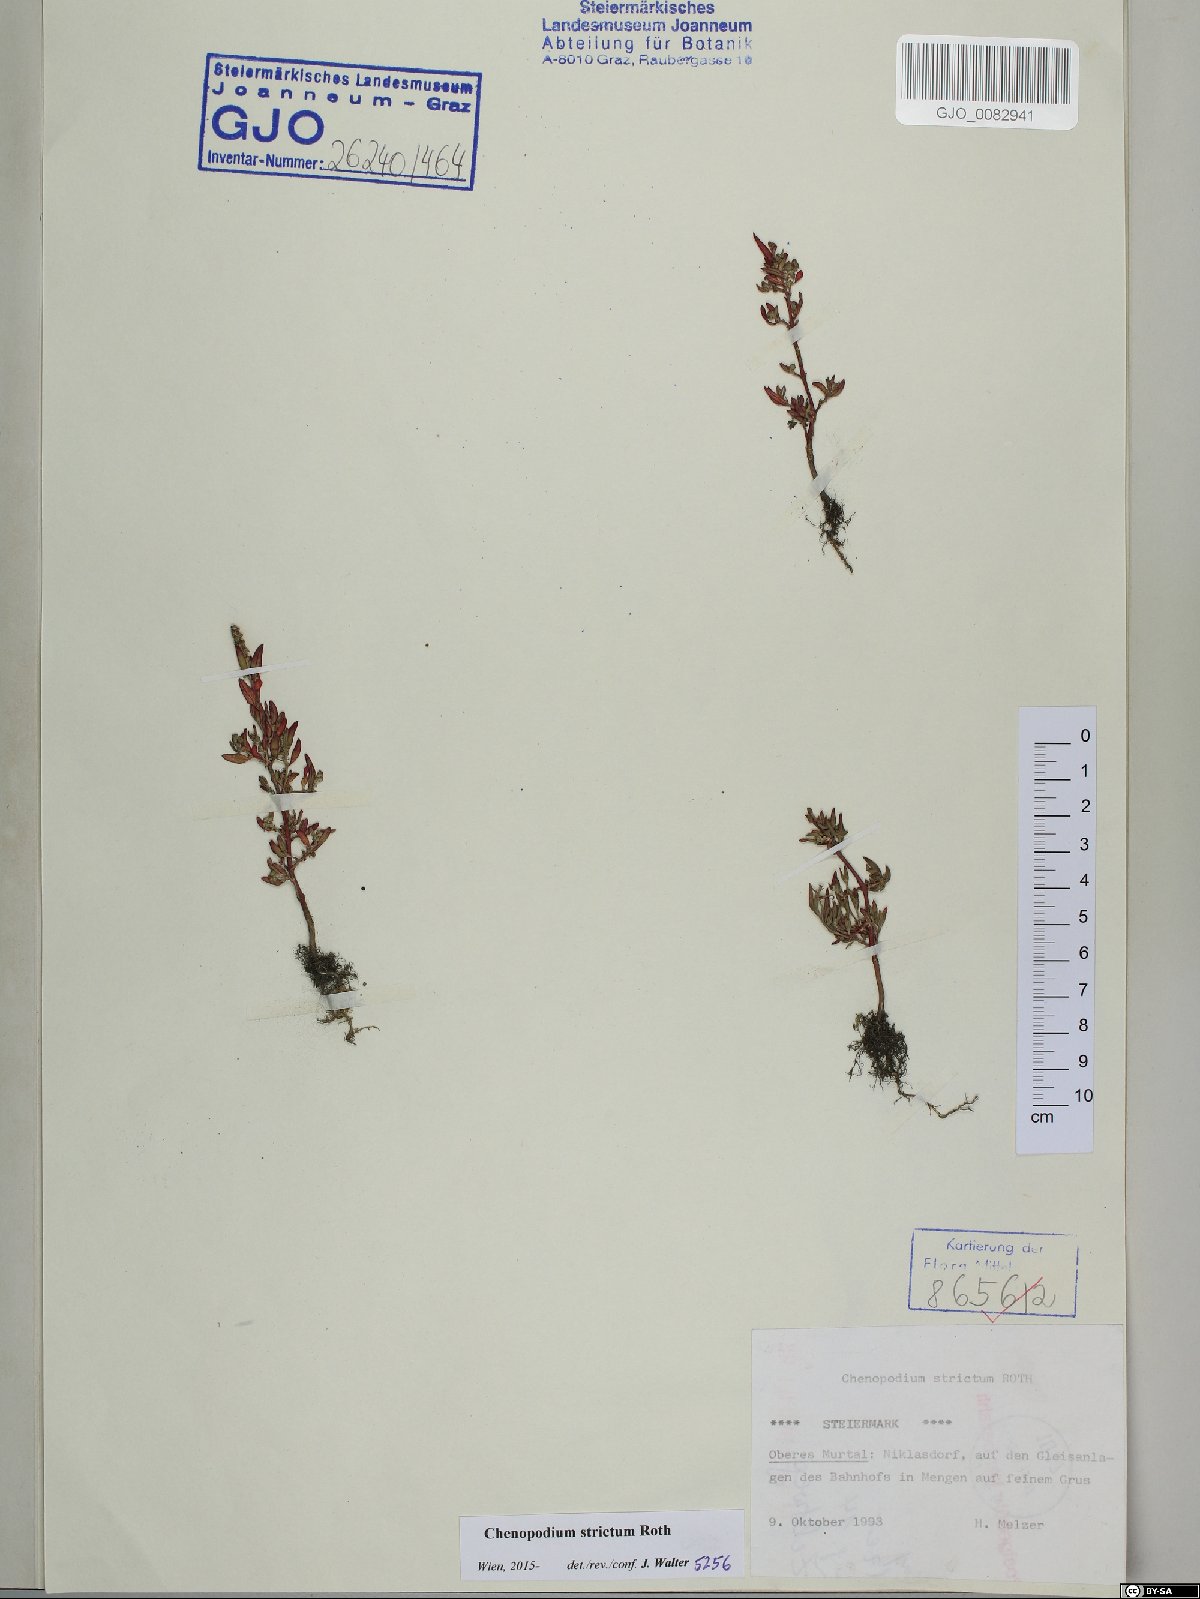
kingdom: Plantae
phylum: Tracheophyta
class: Magnoliopsida
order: Caryophyllales
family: Amaranthaceae
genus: Chenopodium
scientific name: Chenopodium album
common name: Fat-hen
